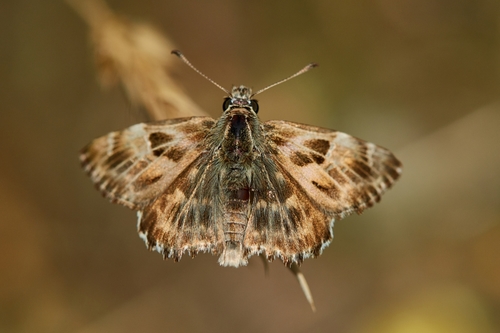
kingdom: Animalia
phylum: Arthropoda
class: Insecta
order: Lepidoptera
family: Hesperiidae
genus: Carcharodus
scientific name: Carcharodus alceae
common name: Mallow skipper
